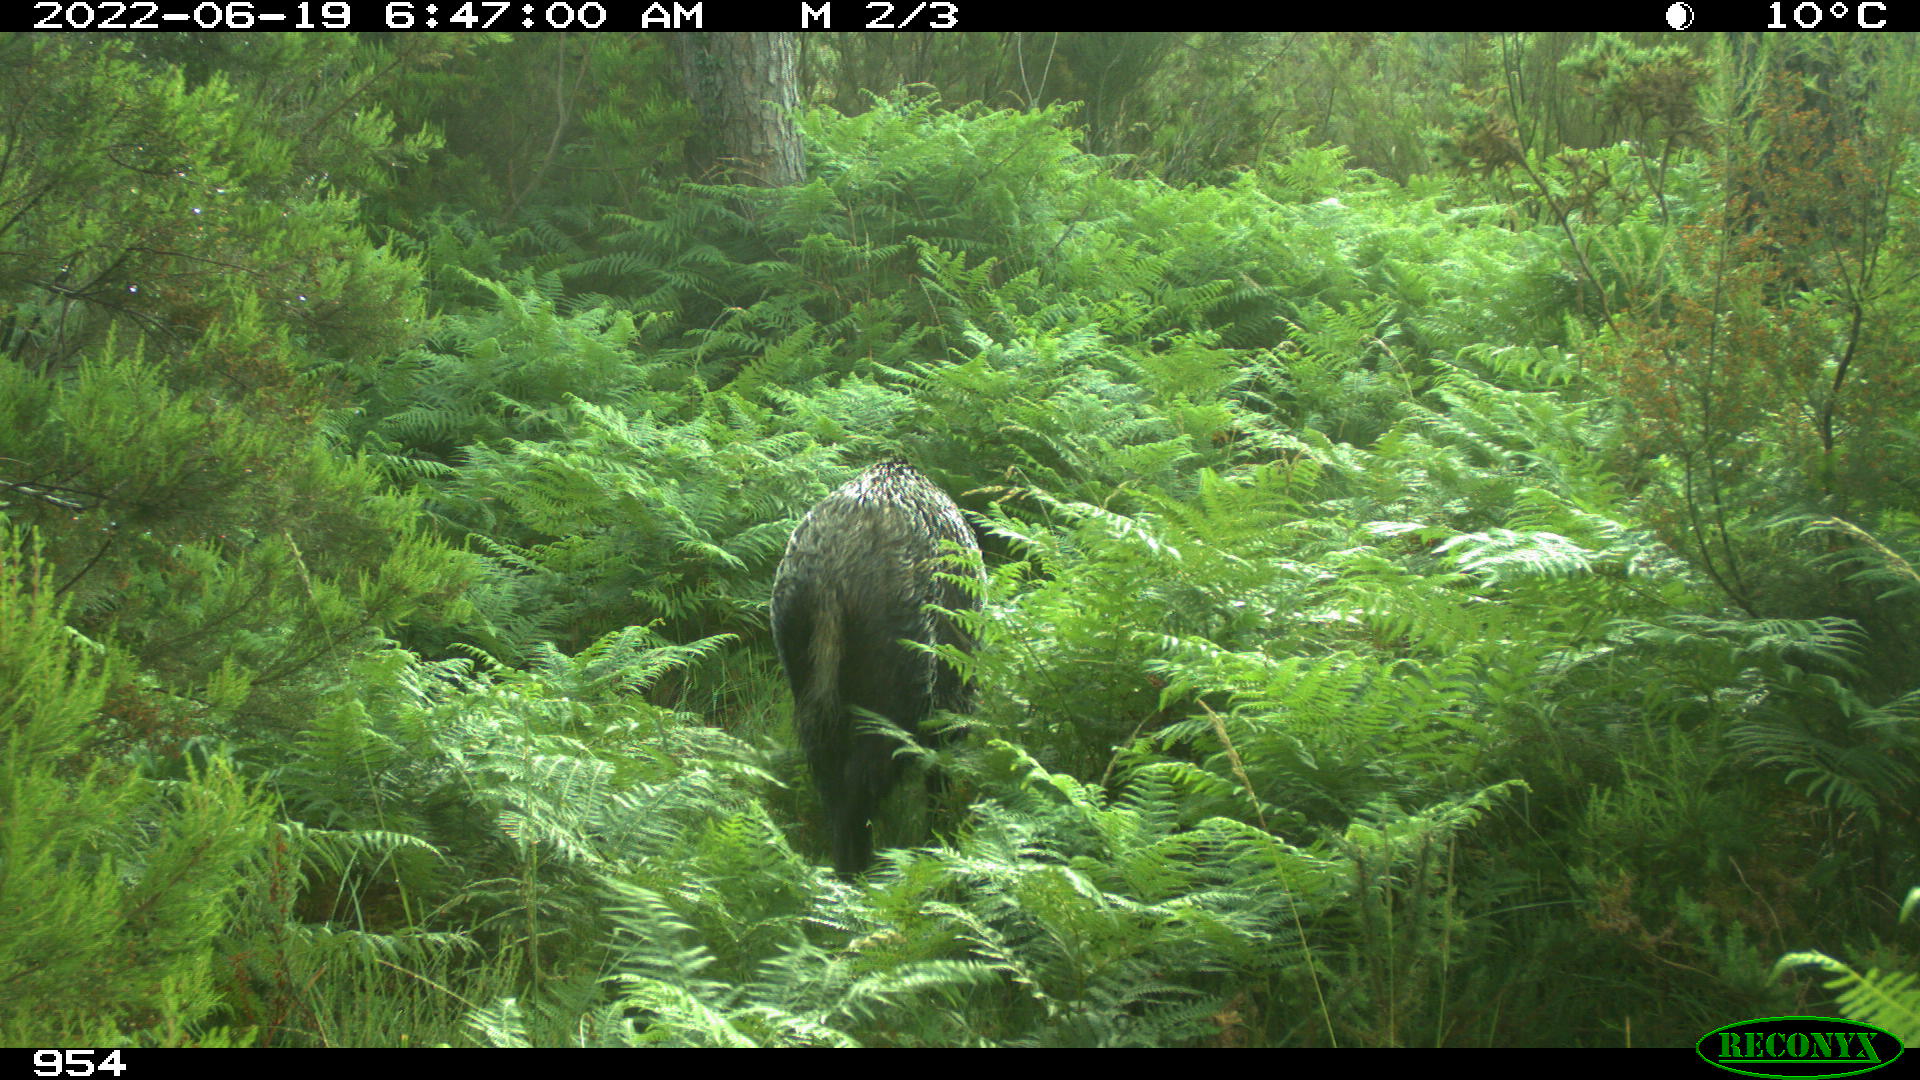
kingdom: Animalia
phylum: Chordata
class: Mammalia
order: Artiodactyla
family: Suidae
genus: Sus
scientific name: Sus scrofa
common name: Wild boar
